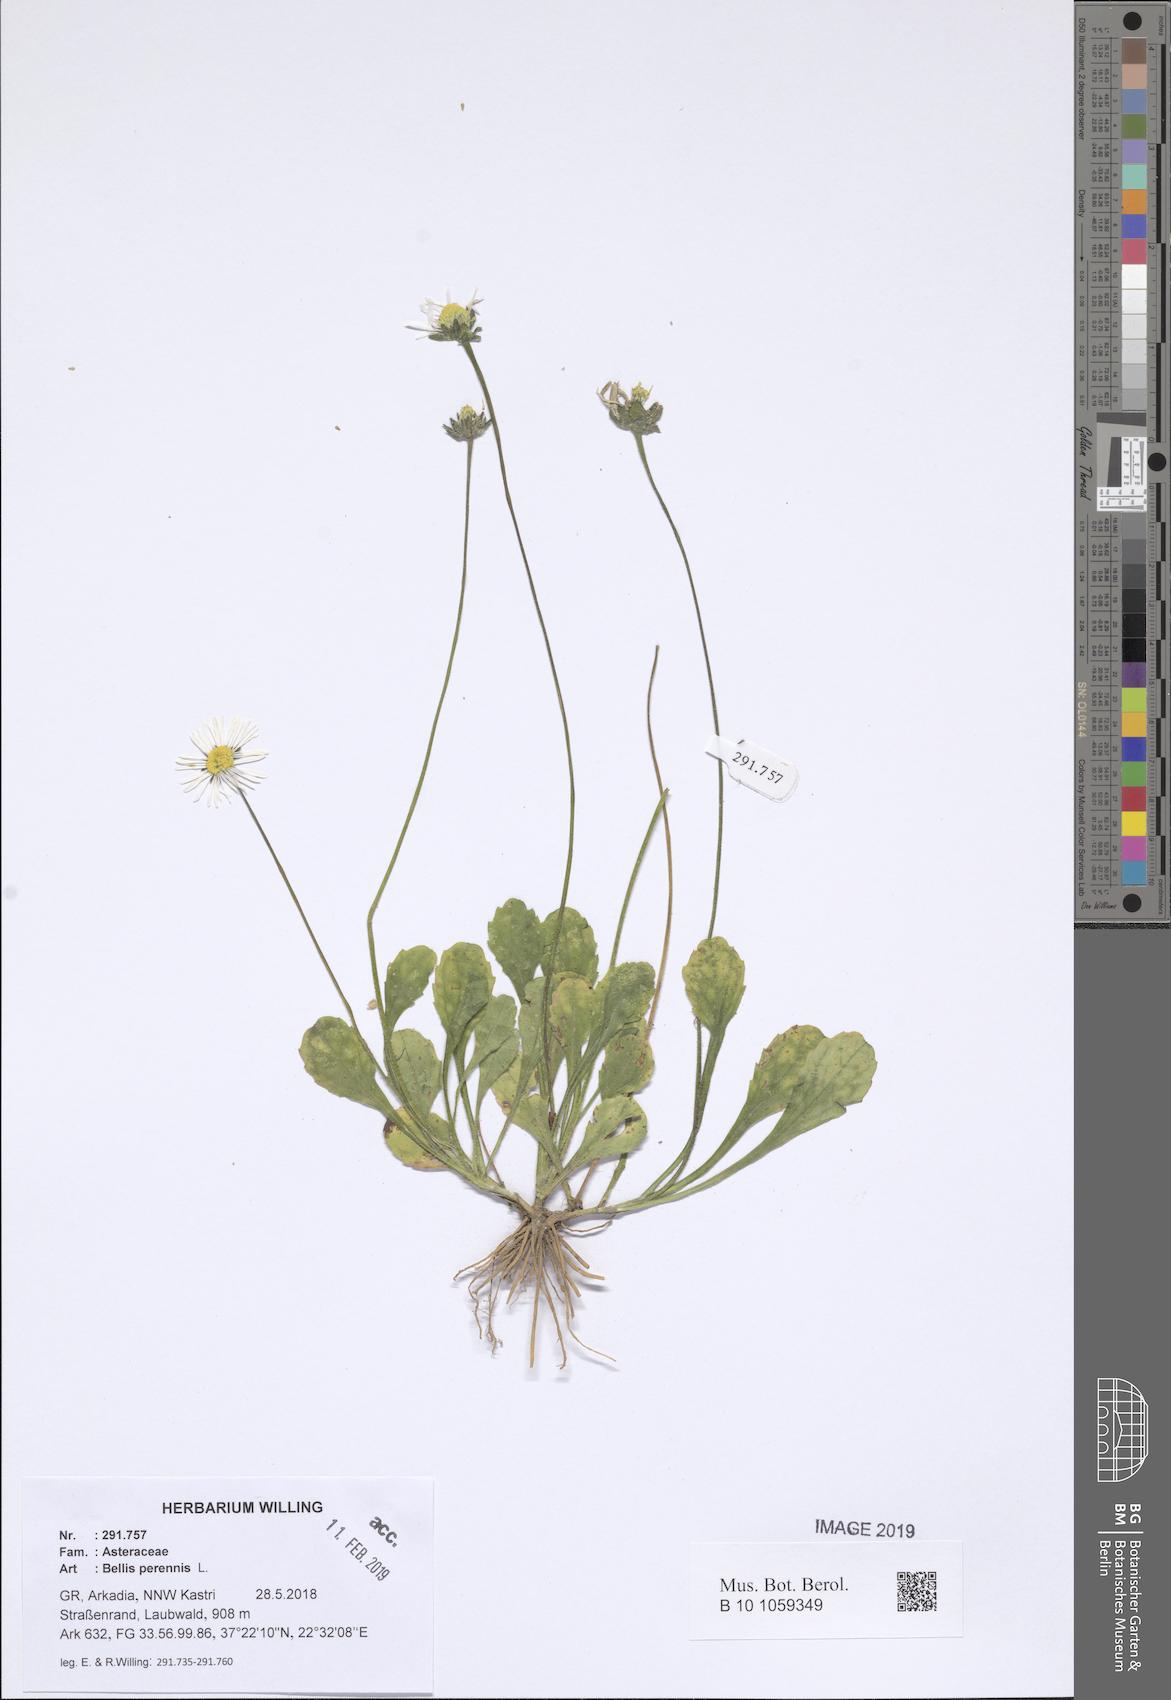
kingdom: Plantae
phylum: Tracheophyta
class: Magnoliopsida
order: Asterales
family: Asteraceae
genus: Bellis
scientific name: Bellis perennis
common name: Lawndaisy
